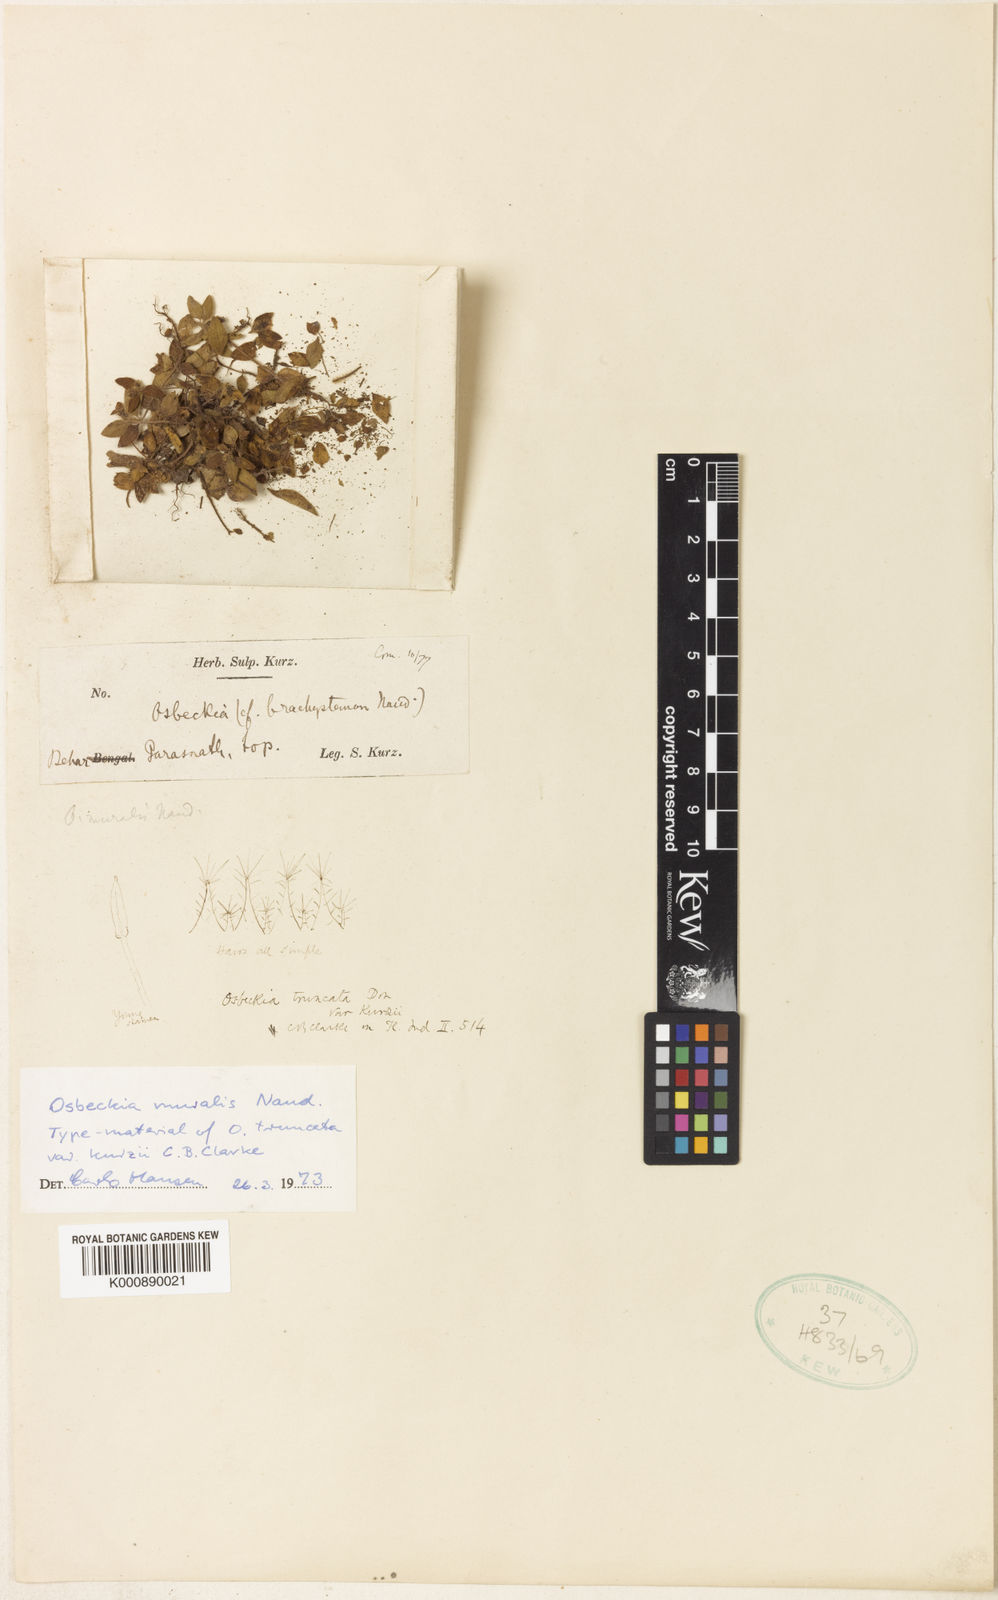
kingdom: Plantae
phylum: Tracheophyta
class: Magnoliopsida
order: Myrtales
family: Melastomataceae
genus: Osbeckia
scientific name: Osbeckia muralis
